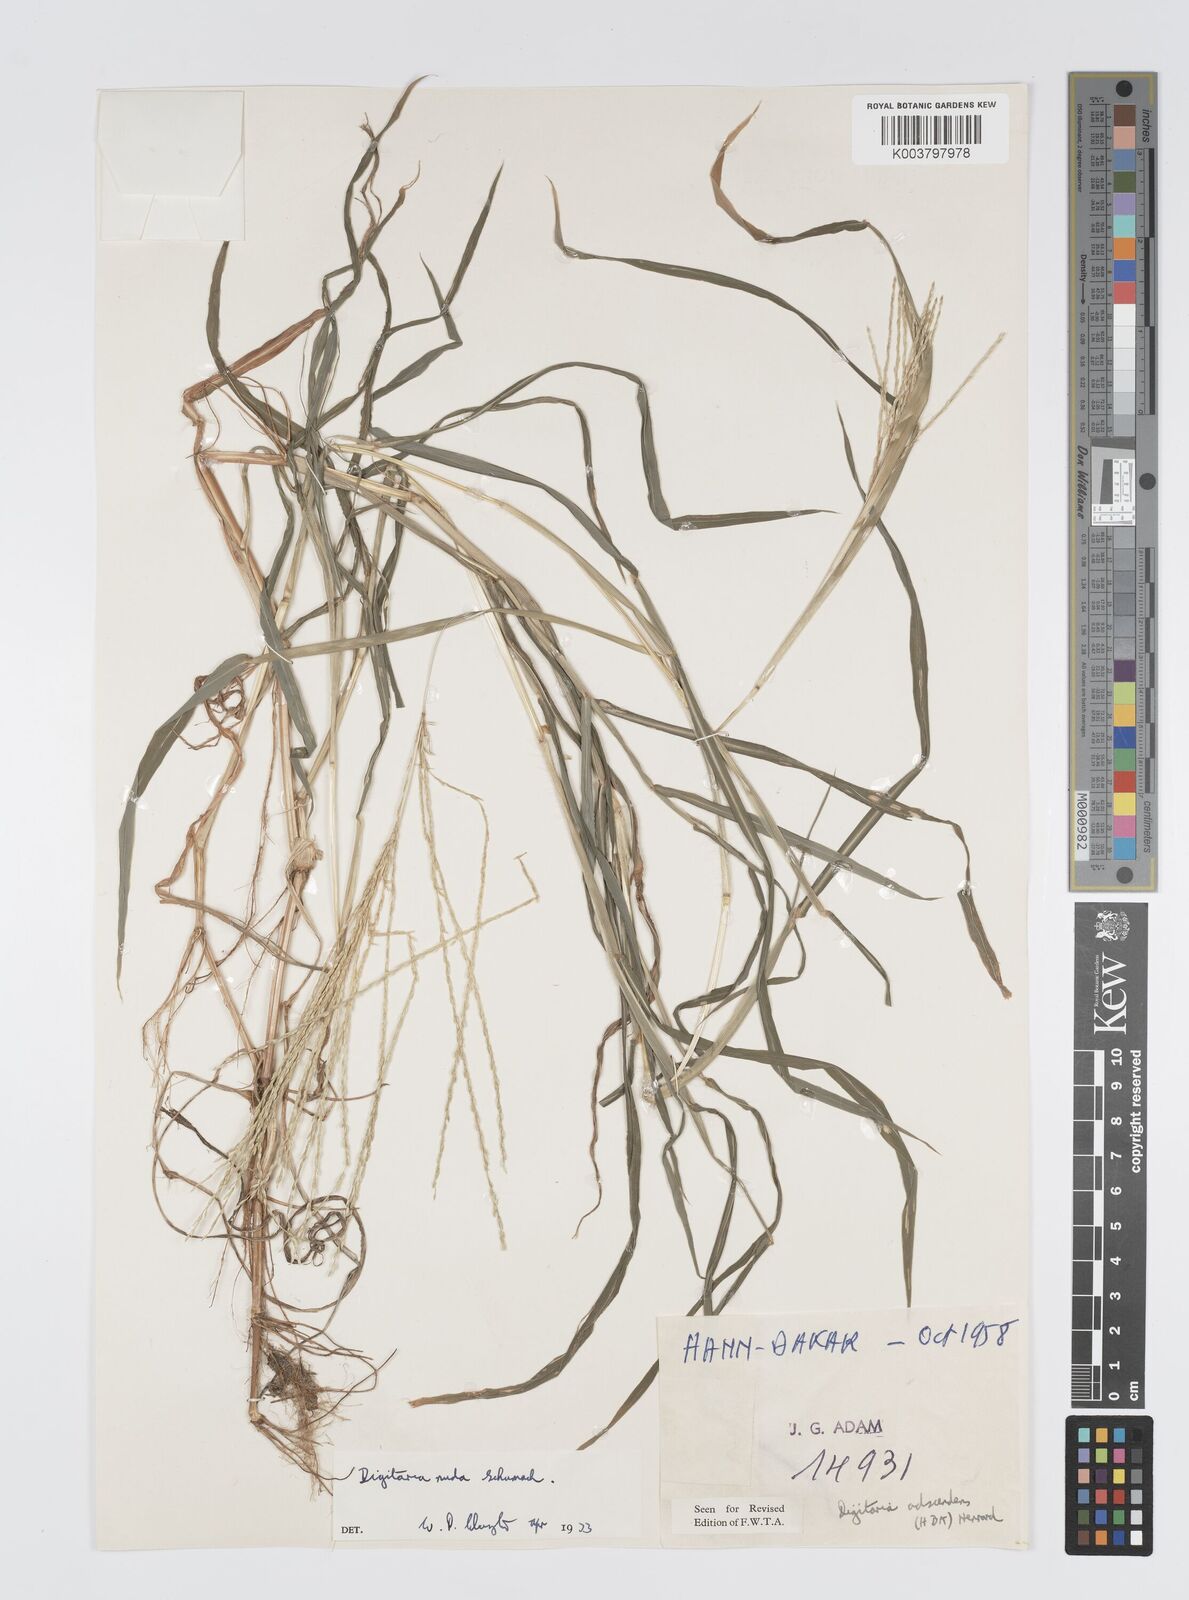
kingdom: Plantae
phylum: Tracheophyta
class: Liliopsida
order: Poales
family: Poaceae
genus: Digitaria
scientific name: Digitaria nuda
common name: Naked crabgrass
